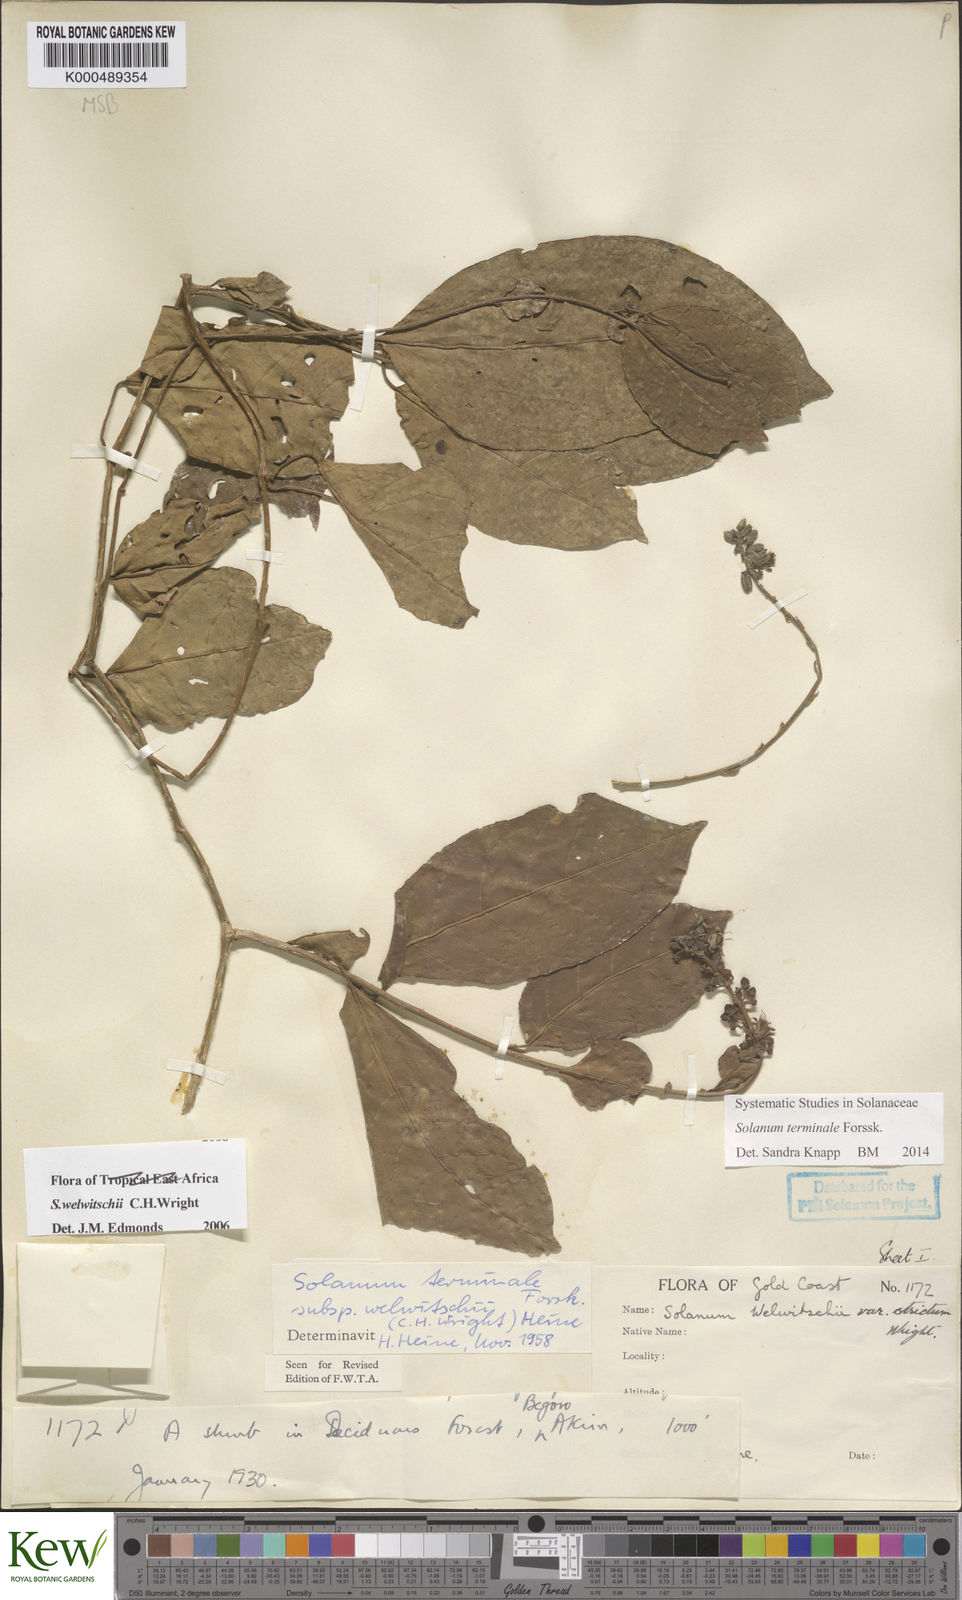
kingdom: Plantae
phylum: Tracheophyta
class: Magnoliopsida
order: Solanales
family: Solanaceae
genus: Solanum
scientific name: Solanum terminale
